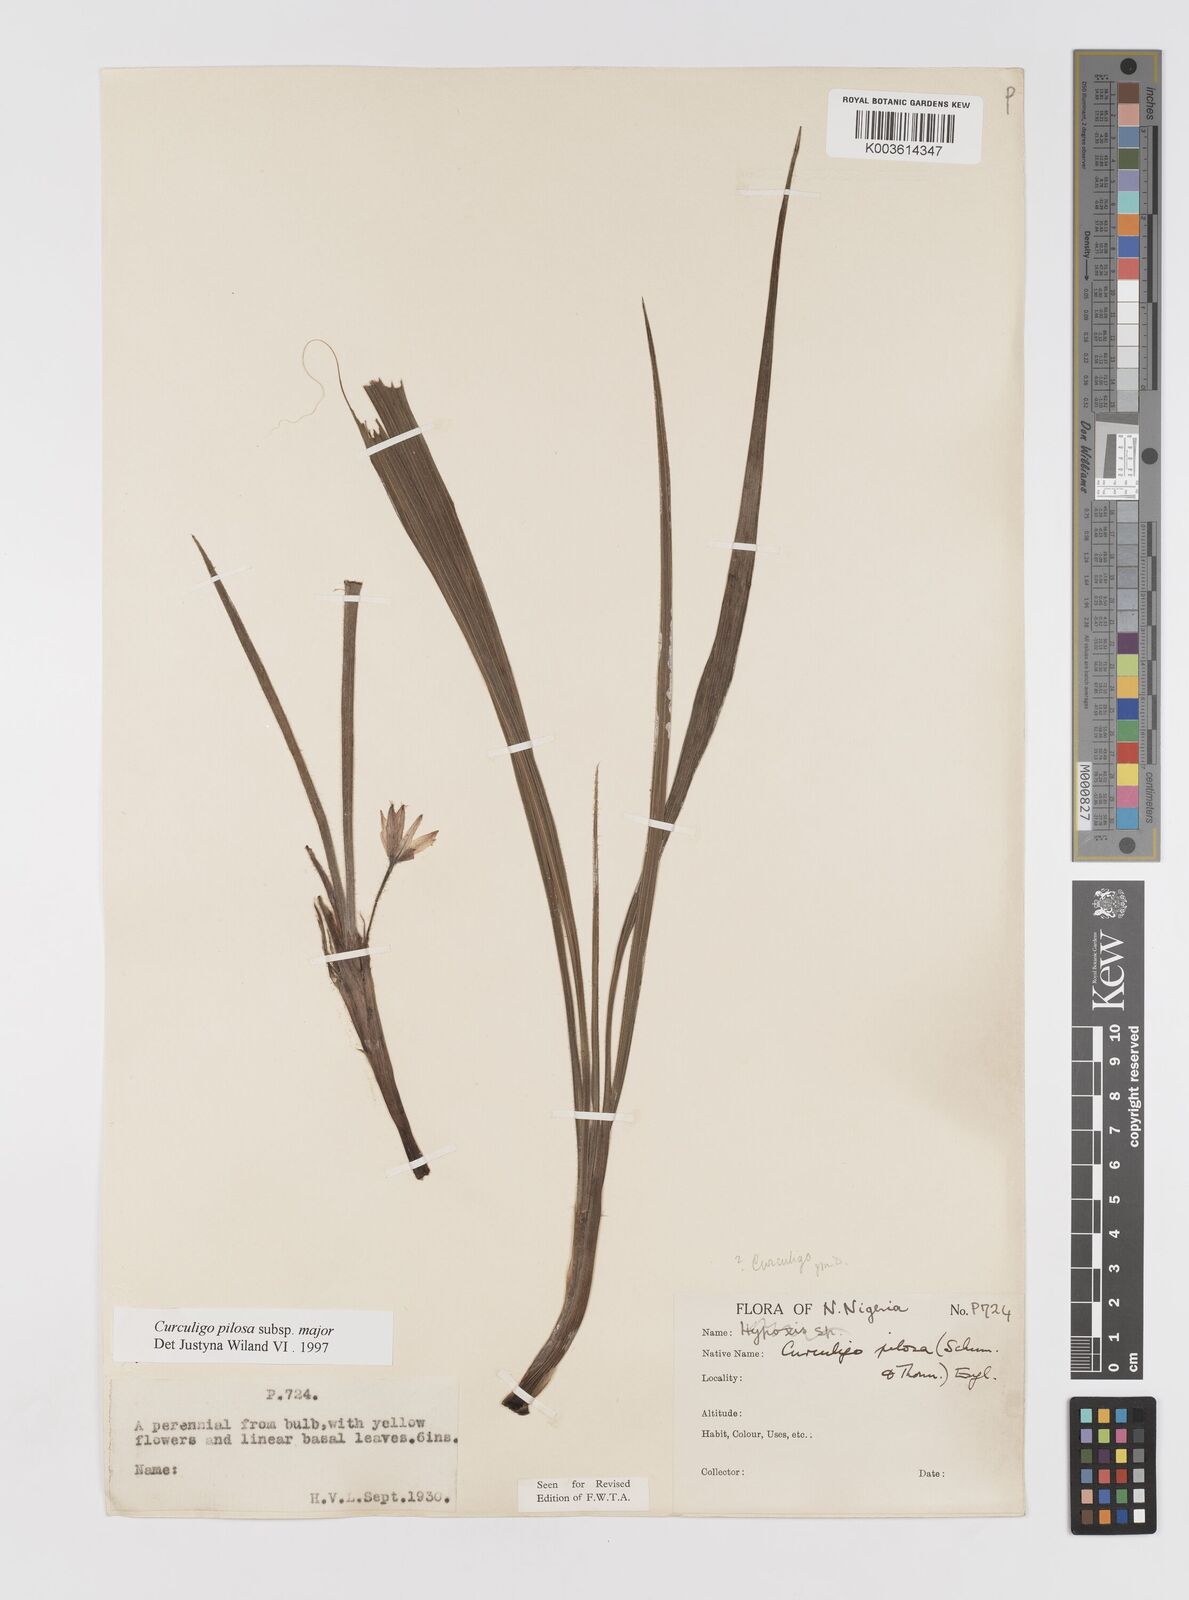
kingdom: Plantae
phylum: Tracheophyta
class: Liliopsida
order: Asparagales
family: Hypoxidaceae
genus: Curculigo
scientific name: Curculigo pilosa
